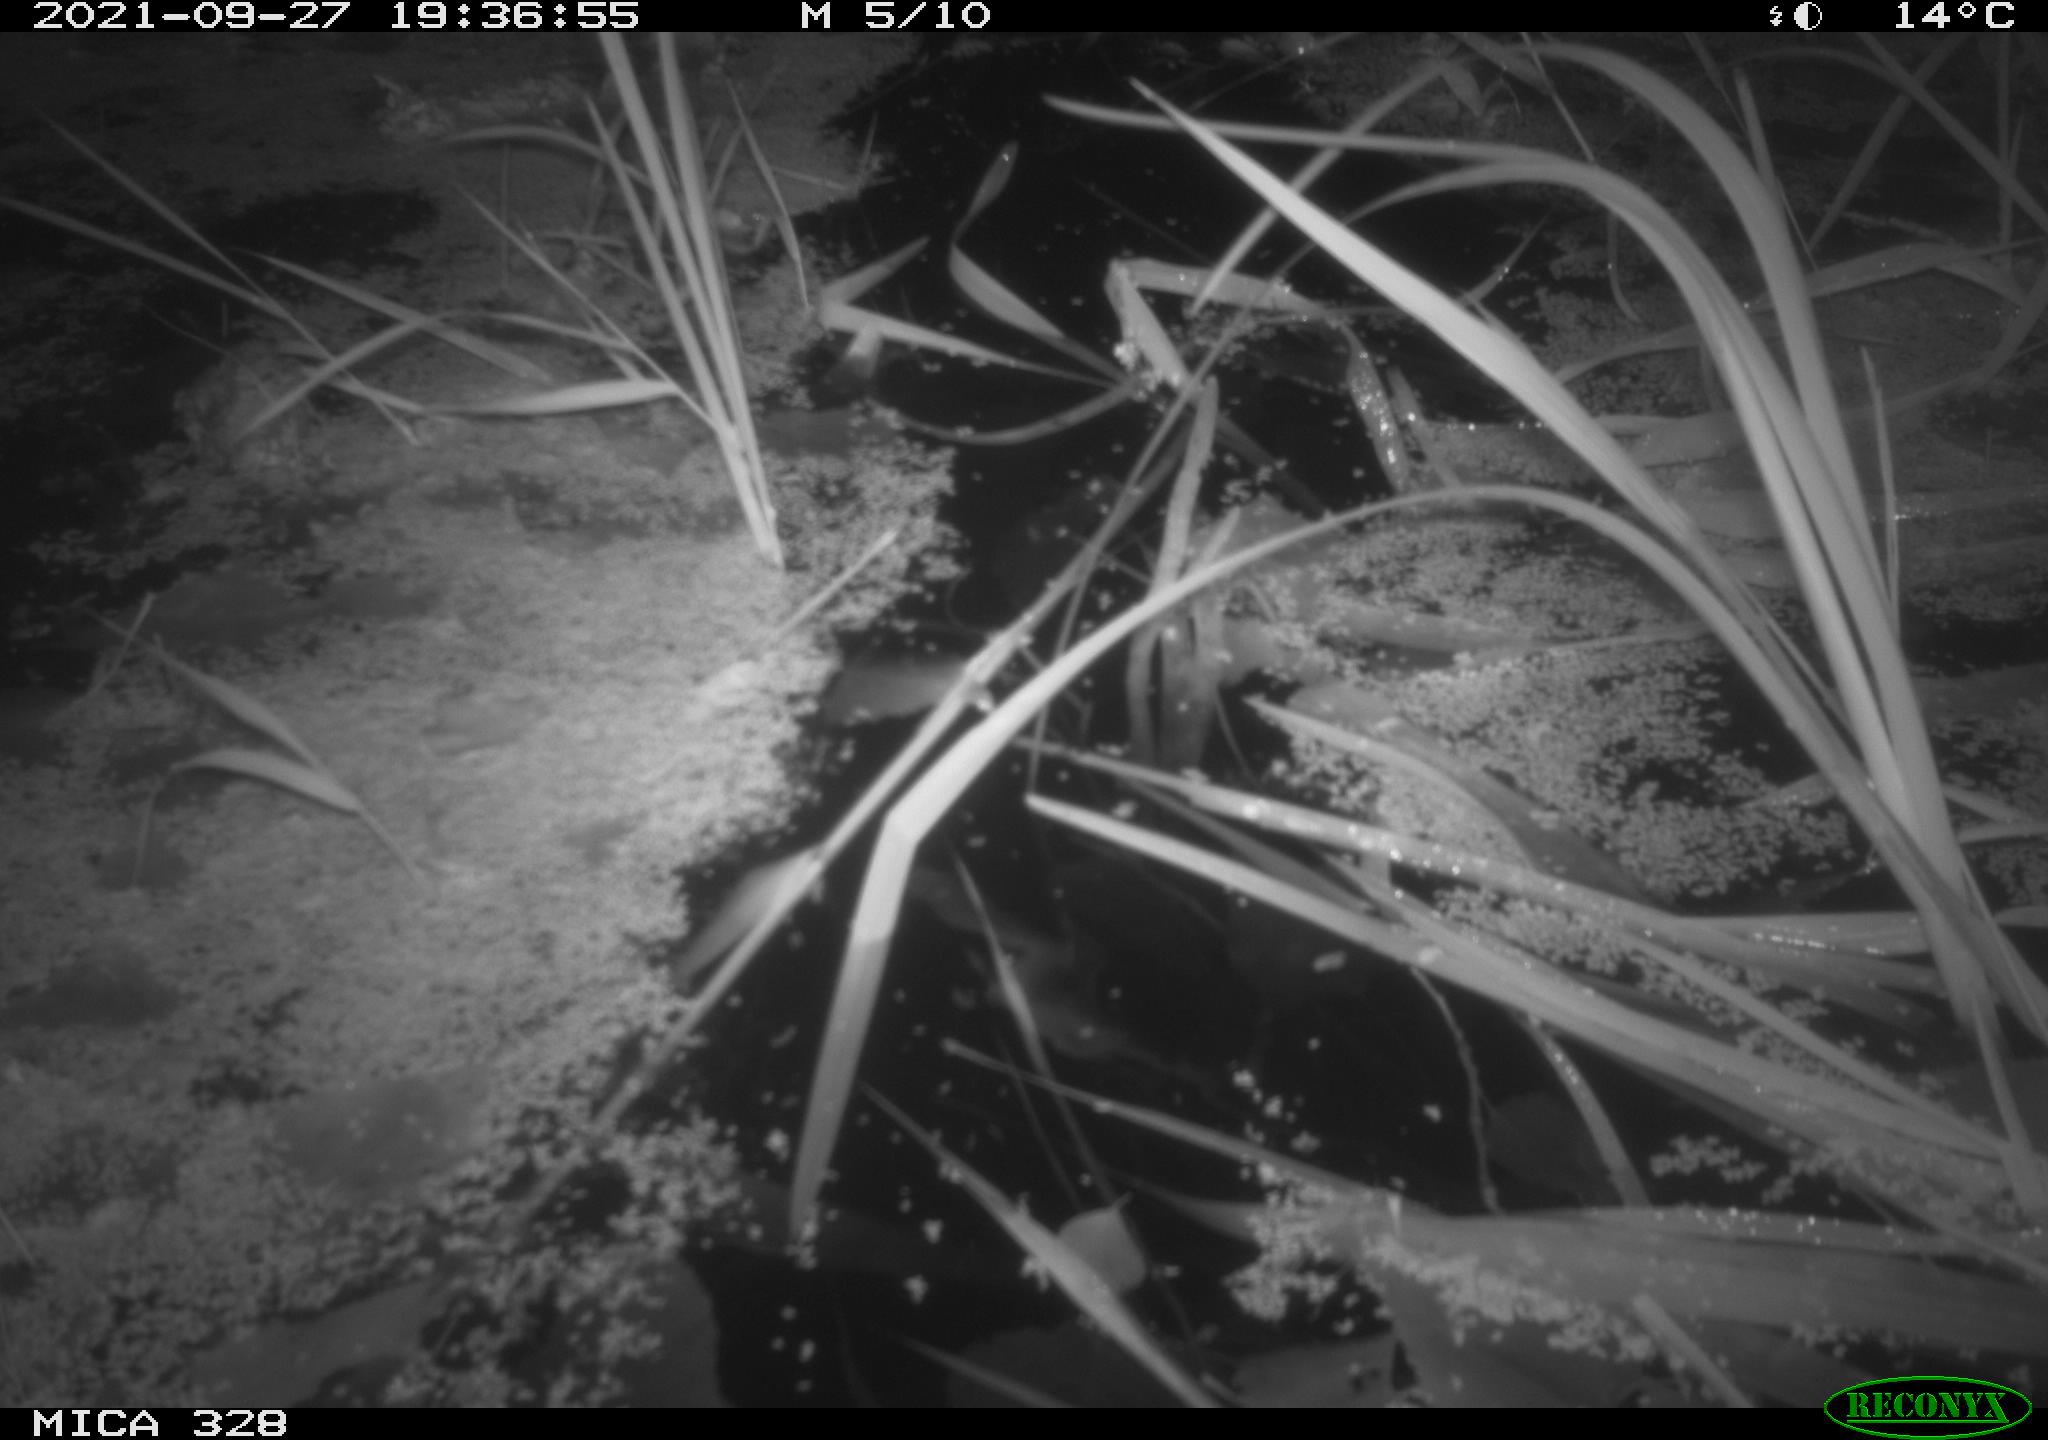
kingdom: Animalia
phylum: Chordata
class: Mammalia
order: Rodentia
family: Cricetidae
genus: Ondatra
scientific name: Ondatra zibethicus
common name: Muskrat
